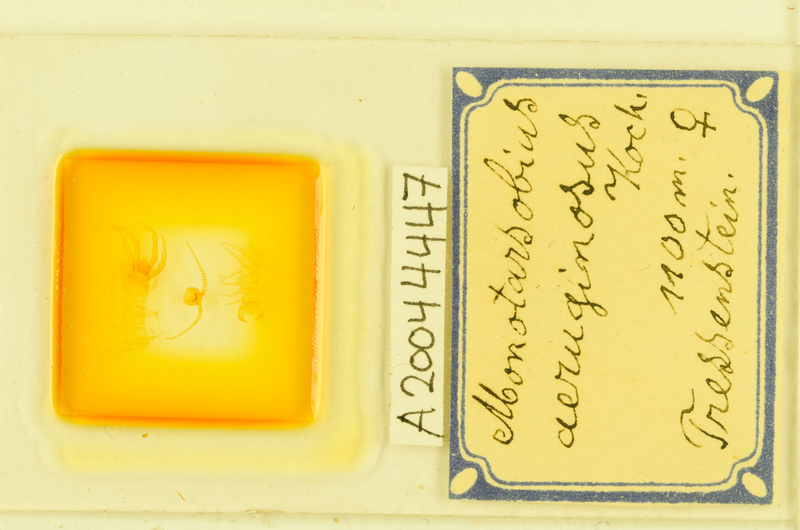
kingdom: Animalia
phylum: Arthropoda
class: Chilopoda
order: Lithobiomorpha
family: Lithobiidae
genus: Monotarsobius
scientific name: Monotarsobius
